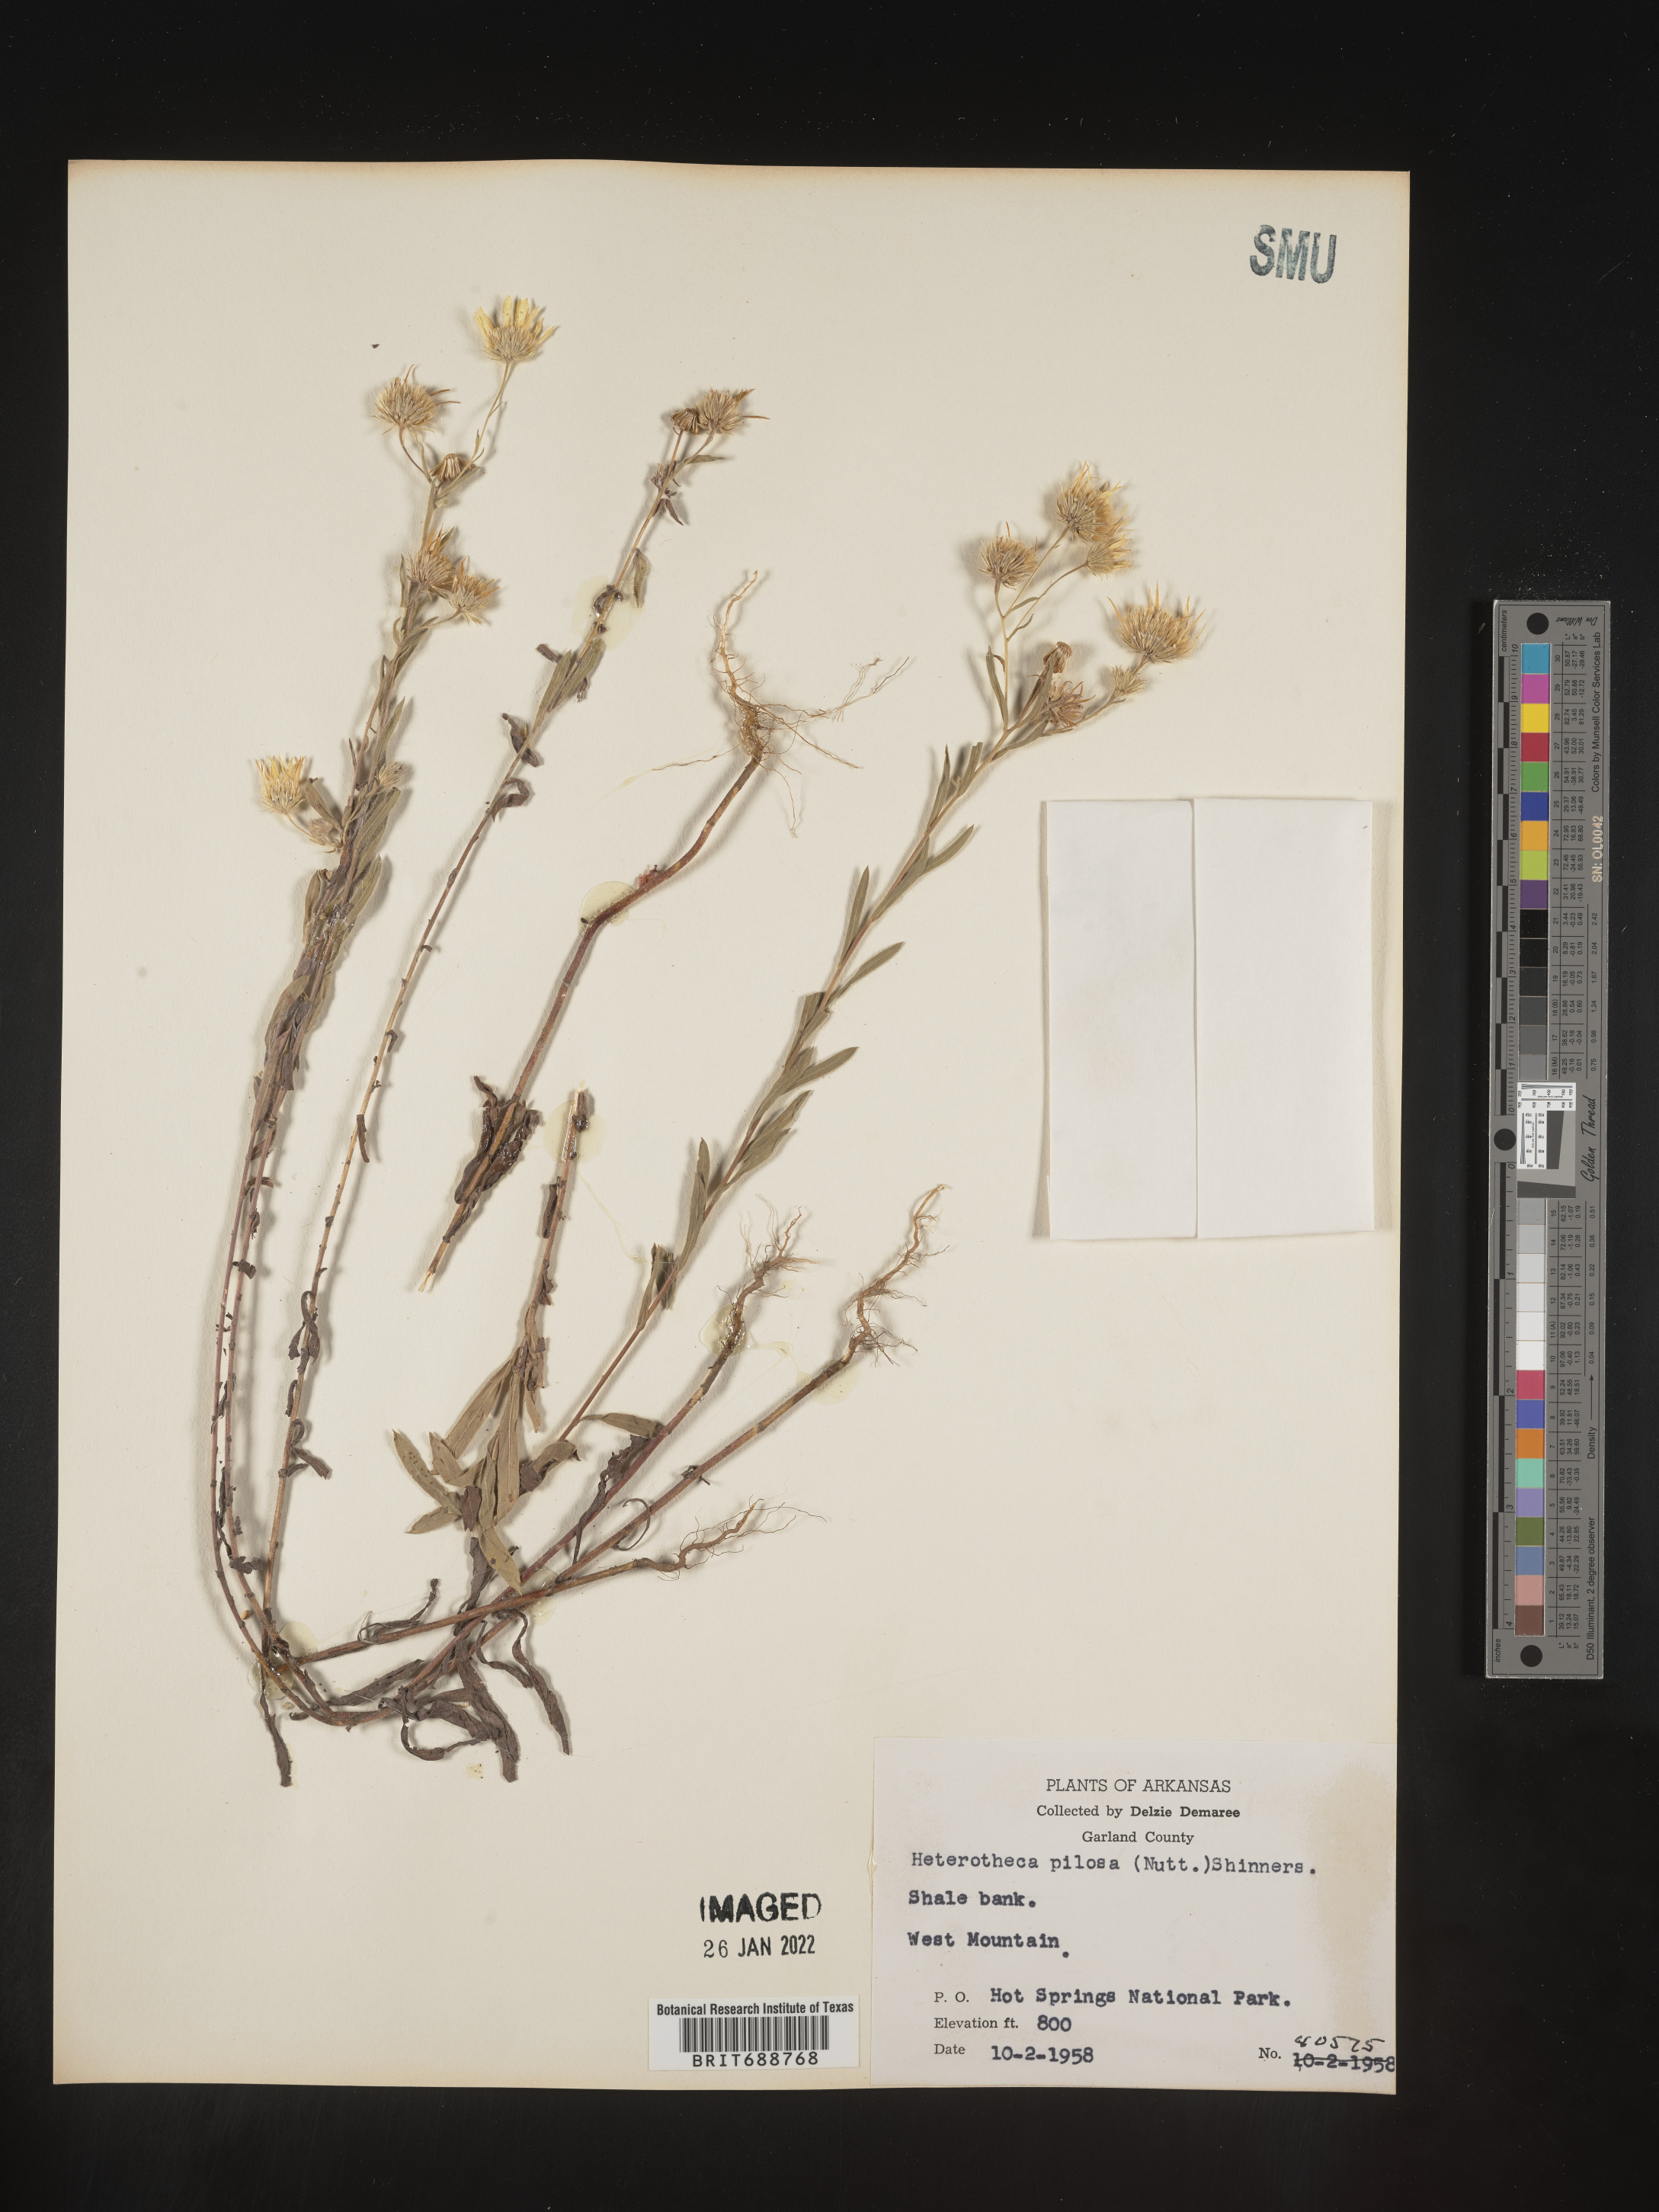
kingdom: Plantae
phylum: Tracheophyta
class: Magnoliopsida
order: Asterales
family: Asteraceae
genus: Bradburia
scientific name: Bradburia pilosa
